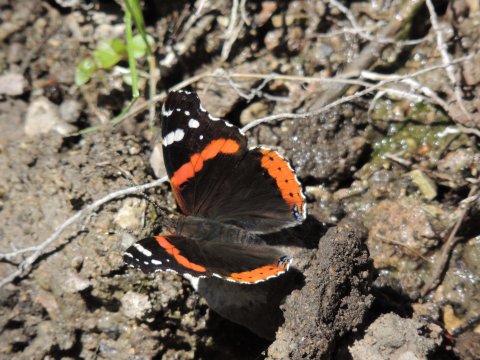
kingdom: Animalia
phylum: Arthropoda
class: Insecta
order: Lepidoptera
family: Nymphalidae
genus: Vanessa
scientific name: Vanessa atalanta
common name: Red Admiral
